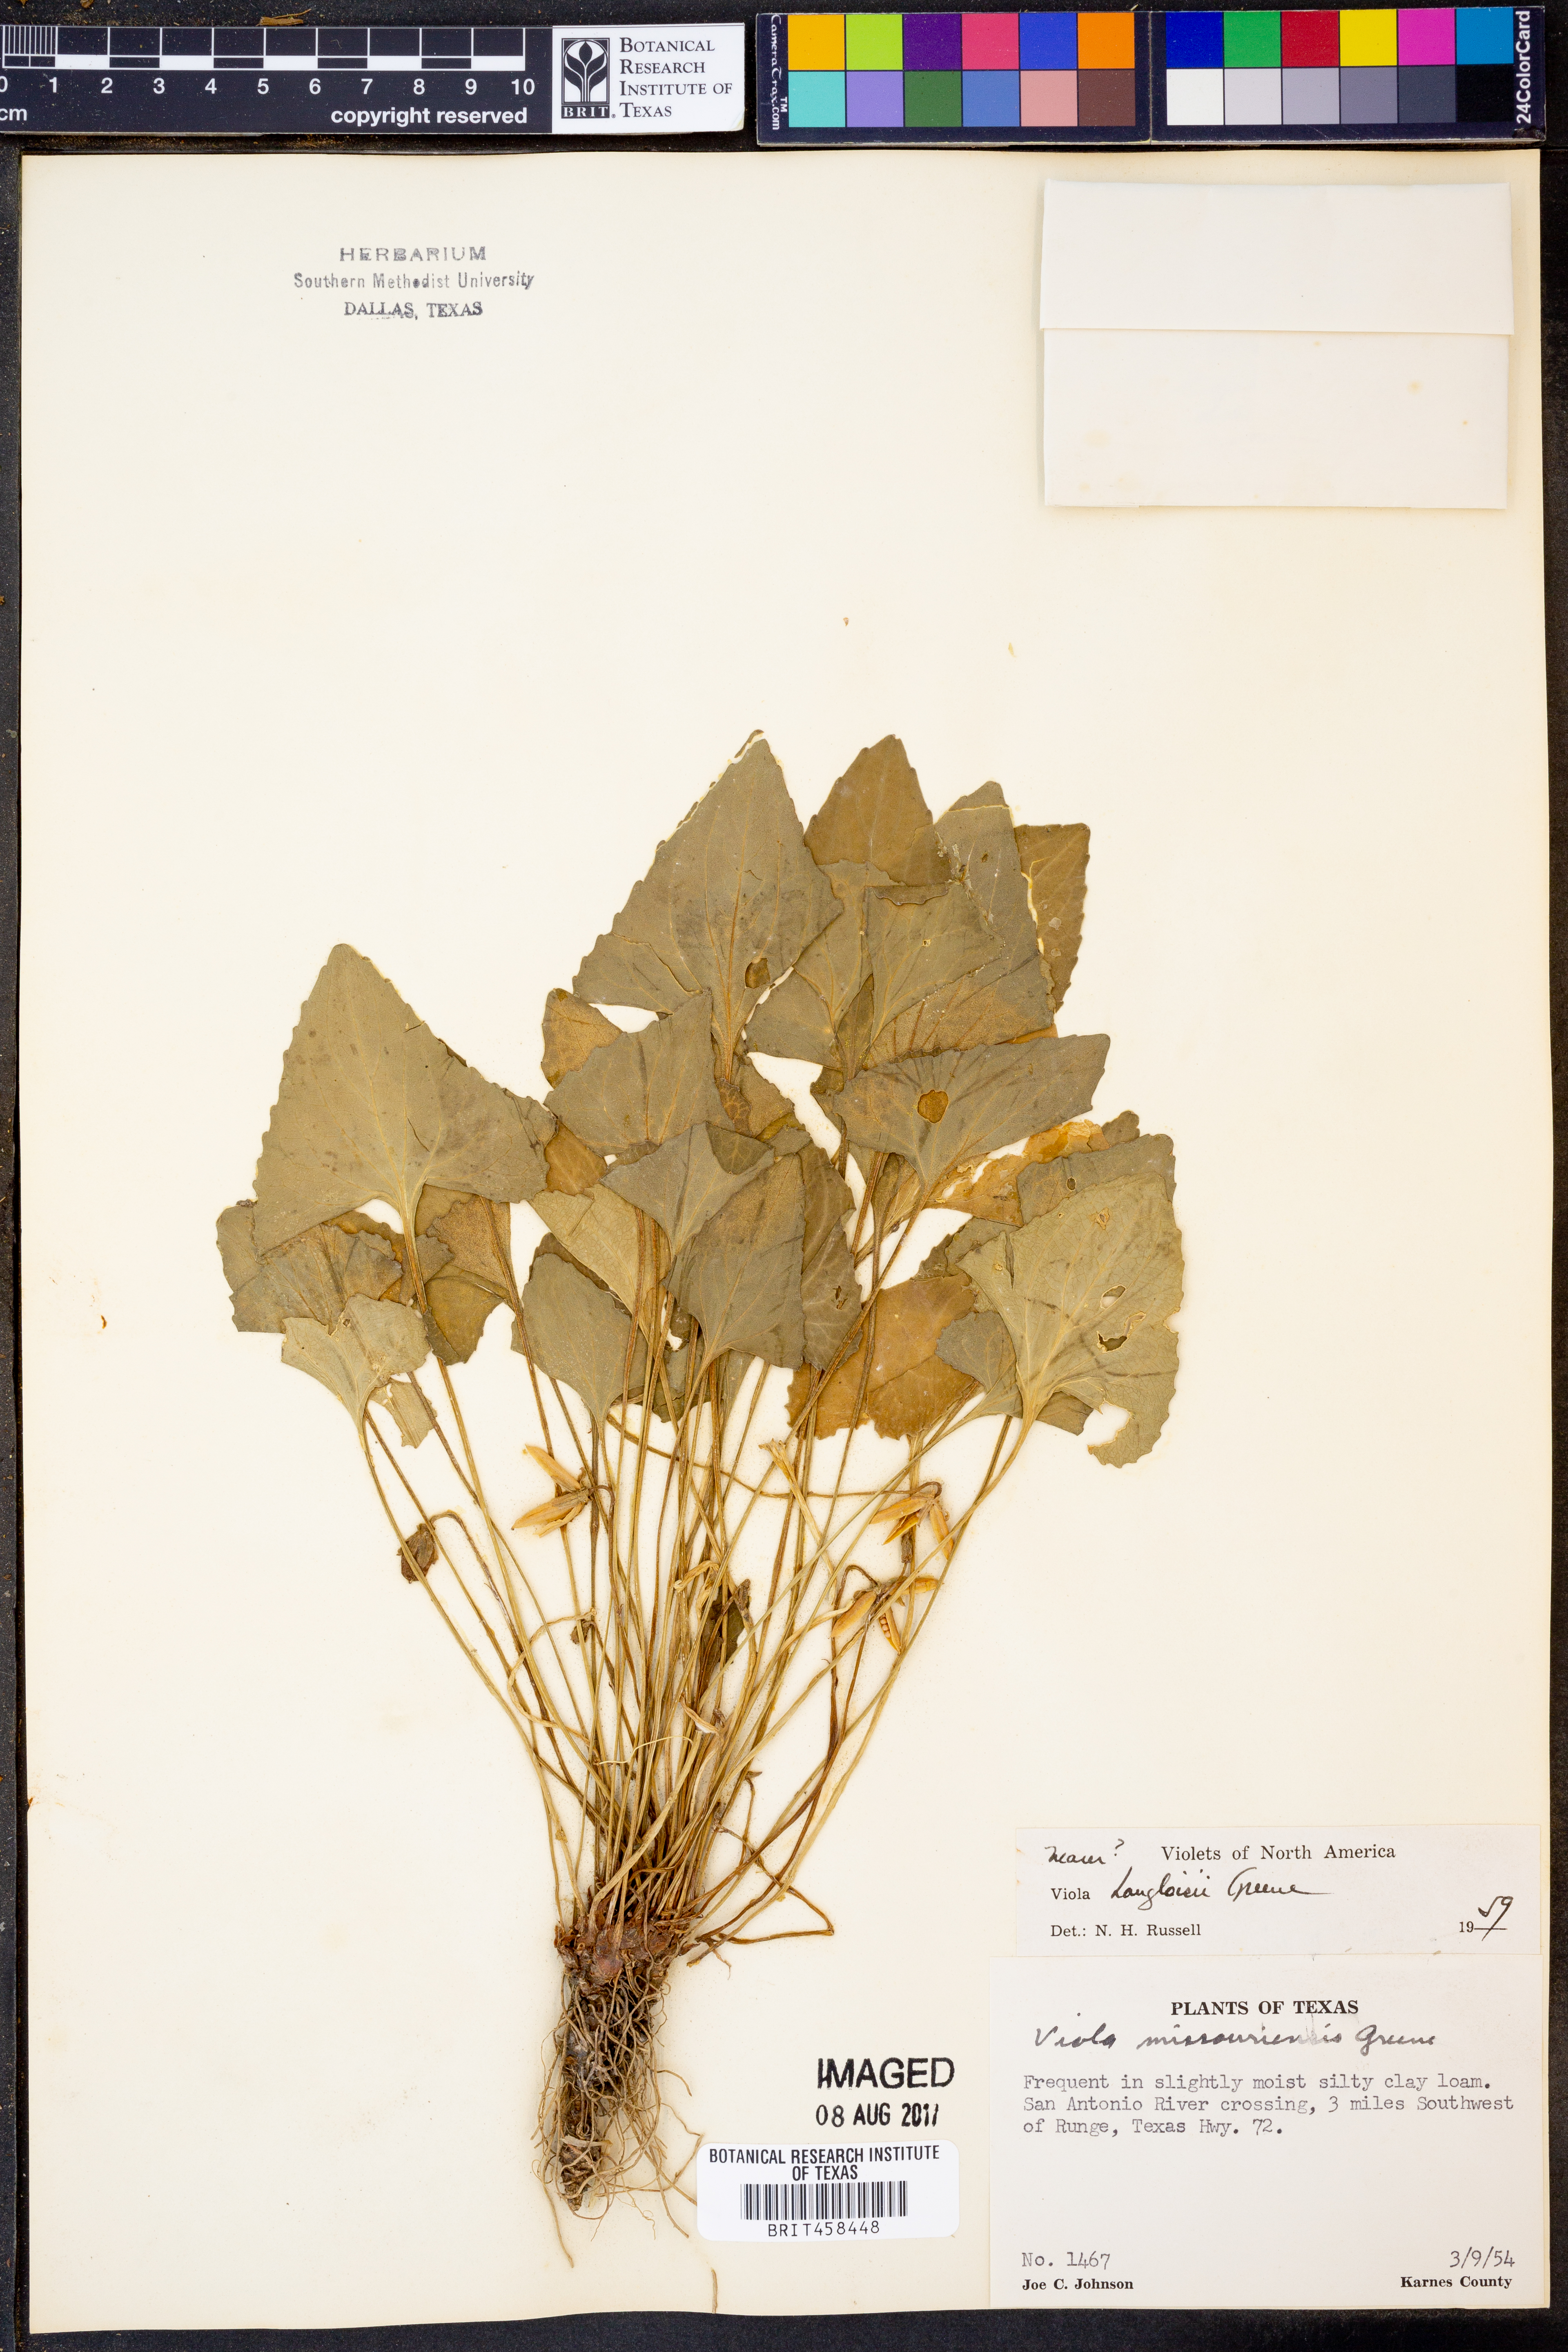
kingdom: Plantae
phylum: Tracheophyta
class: Magnoliopsida
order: Malpighiales
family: Violaceae
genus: Viola
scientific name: Viola langloisii
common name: Langlois' violet
